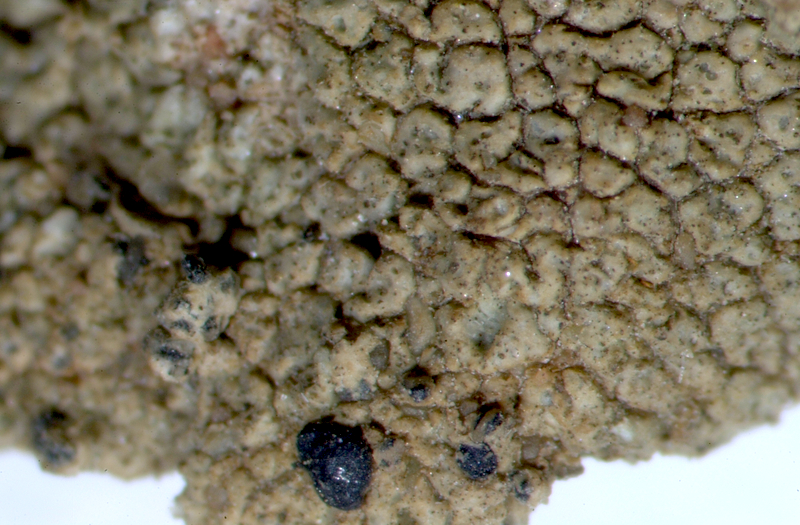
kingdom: Fungi
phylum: Ascomycota
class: Lecanoromycetes
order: Lecanorales
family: Lecanoraceae
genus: Lecidella
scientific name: Lecidella
